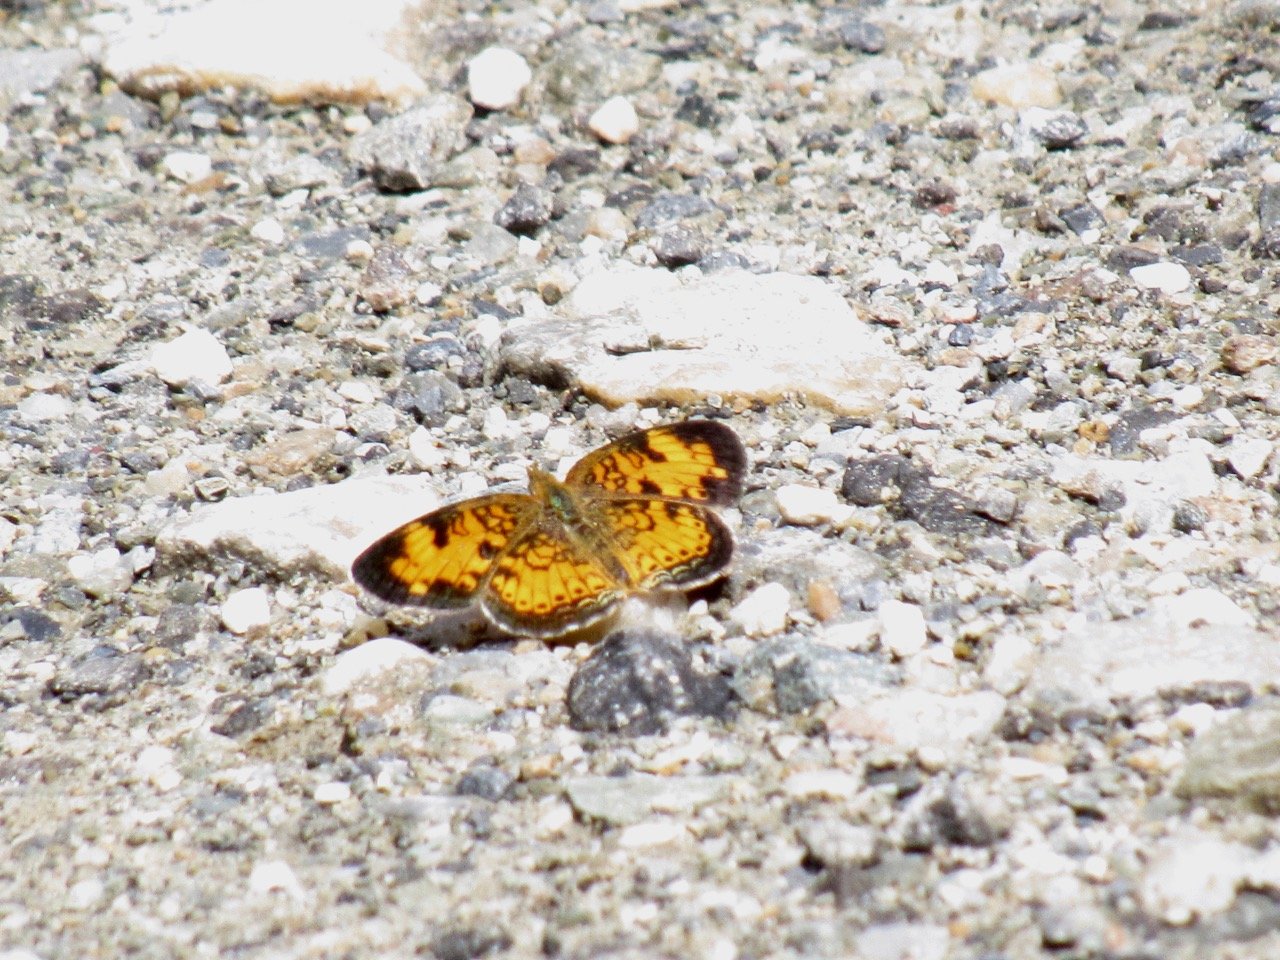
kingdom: Animalia
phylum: Arthropoda
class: Insecta
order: Lepidoptera
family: Nymphalidae
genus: Phyciodes
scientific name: Phyciodes
